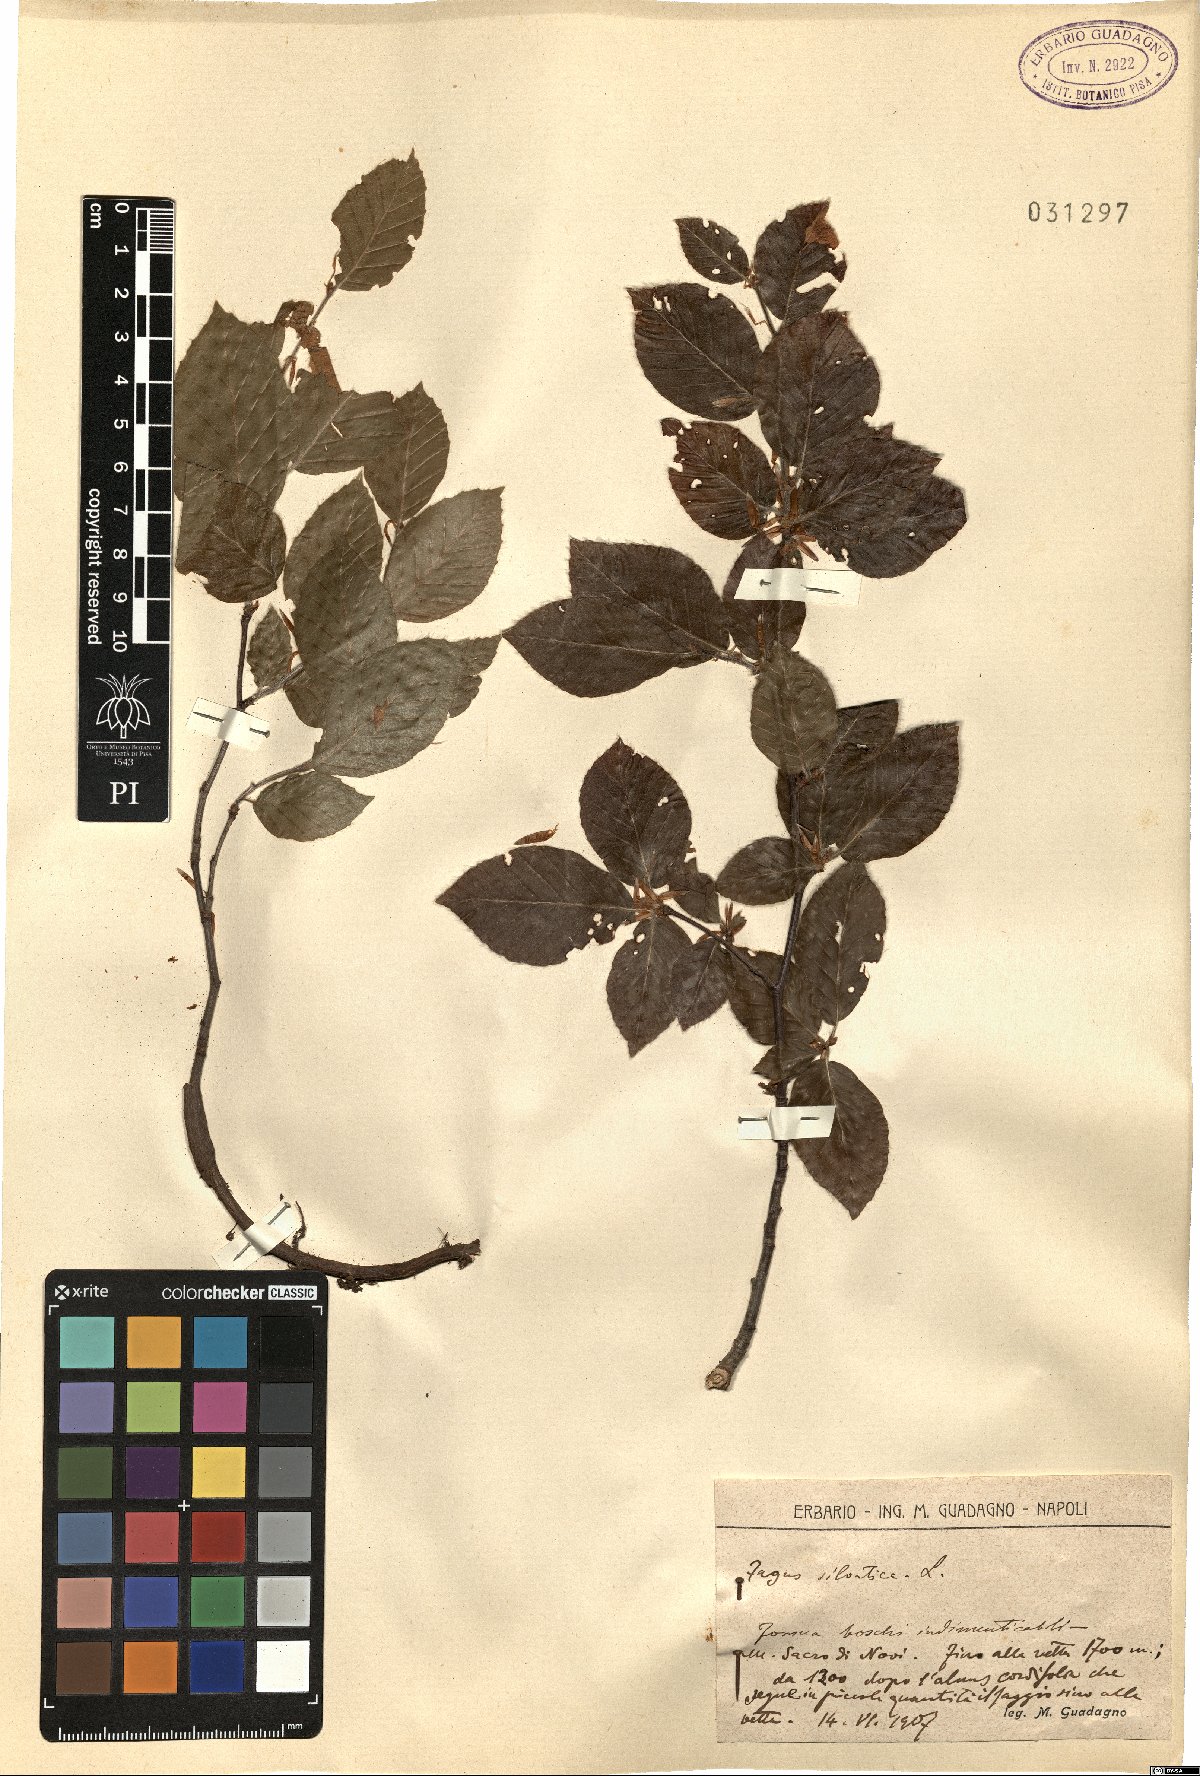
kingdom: Plantae
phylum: Tracheophyta
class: Magnoliopsida
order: Fagales
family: Fagaceae
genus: Fagus
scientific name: Fagus sylvatica
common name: Beech
